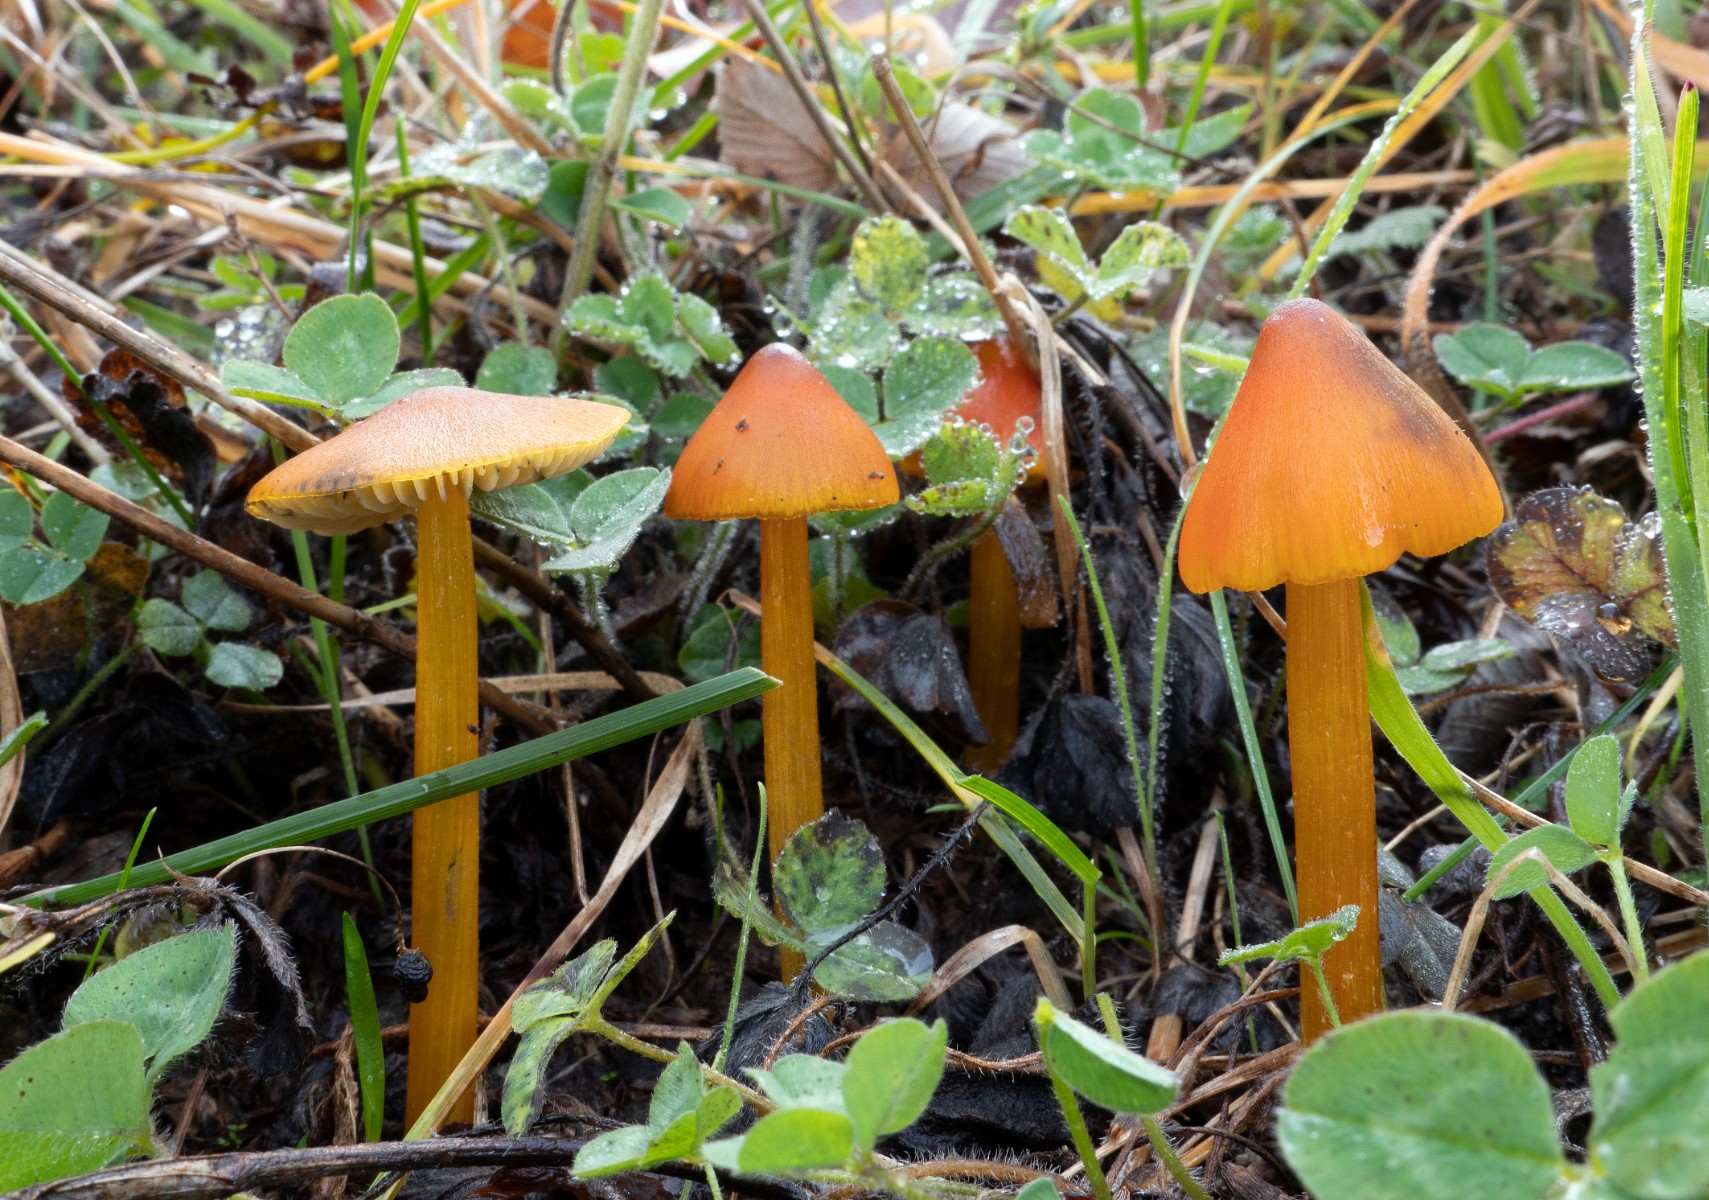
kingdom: Fungi
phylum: Basidiomycota
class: Agaricomycetes
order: Agaricales
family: Hygrophoraceae
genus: Hygrocybe
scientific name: Hygrocybe conica
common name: kegle-vokshat
